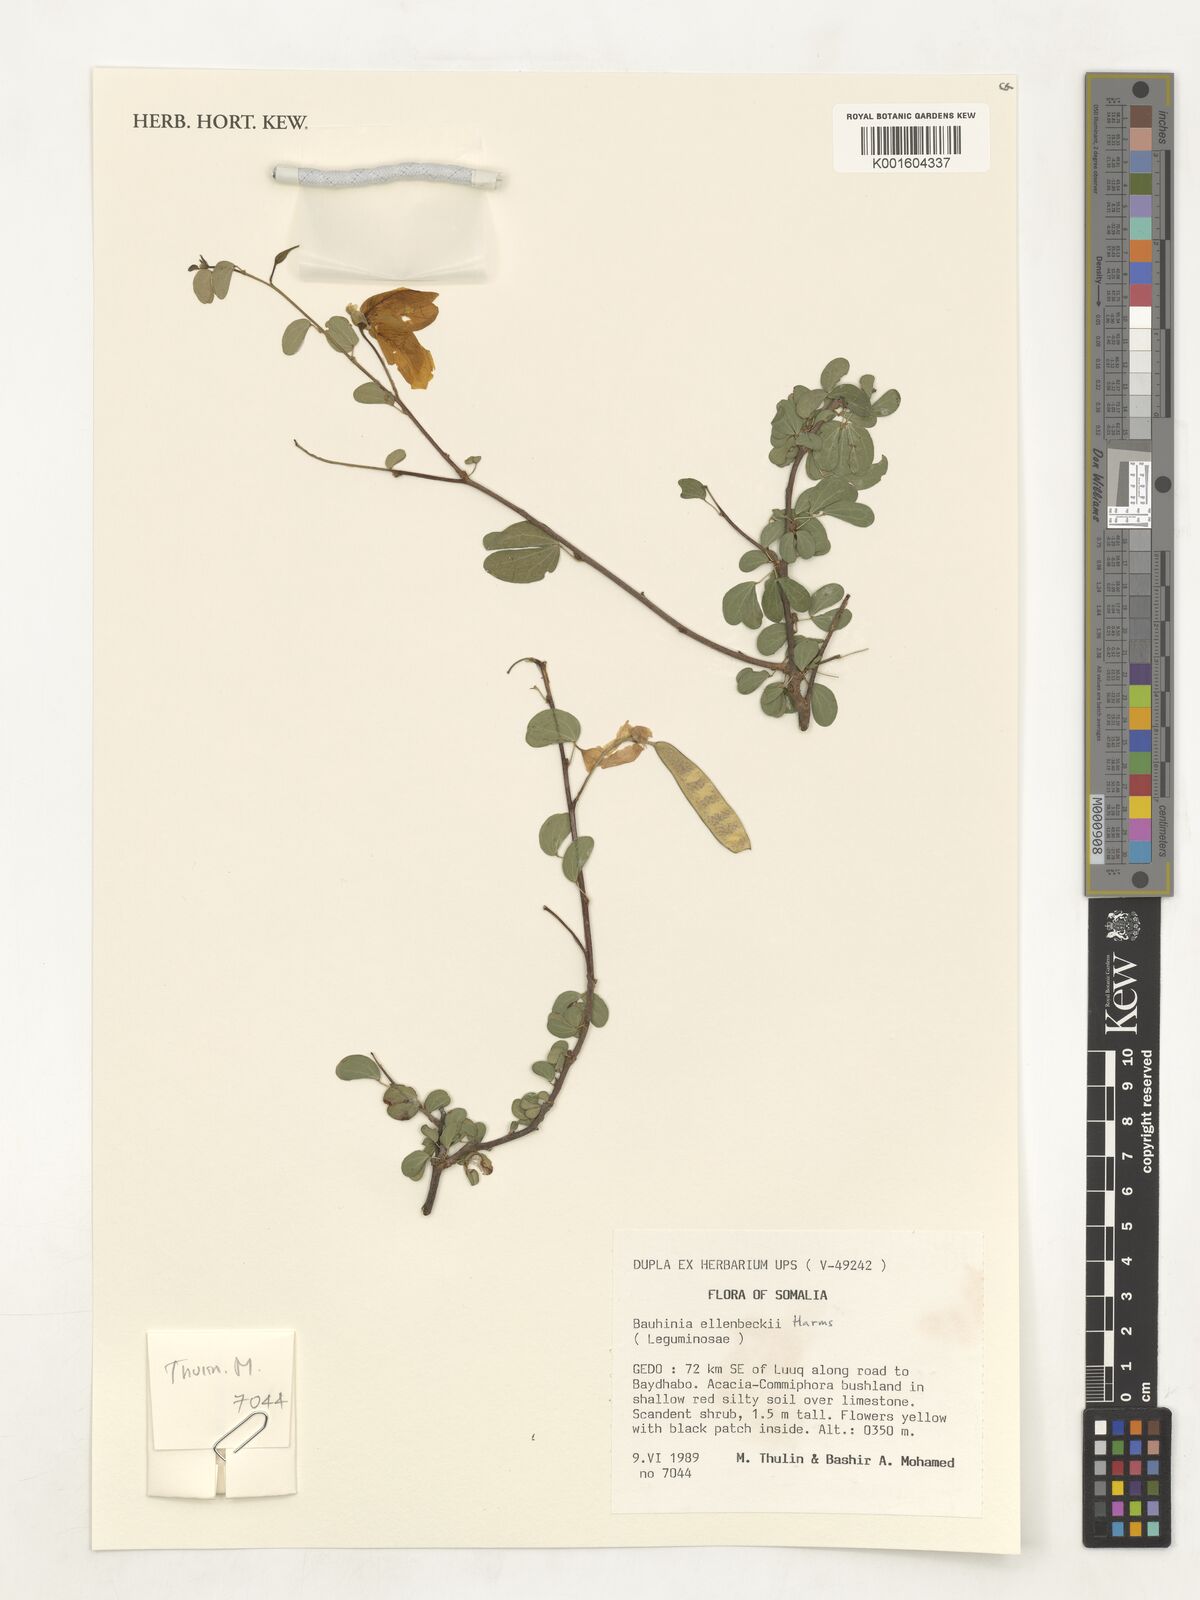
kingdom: Plantae
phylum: Tracheophyta
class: Magnoliopsida
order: Fabales
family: Fabaceae
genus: Bauhinia
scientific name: Bauhinia ellenbeckii
